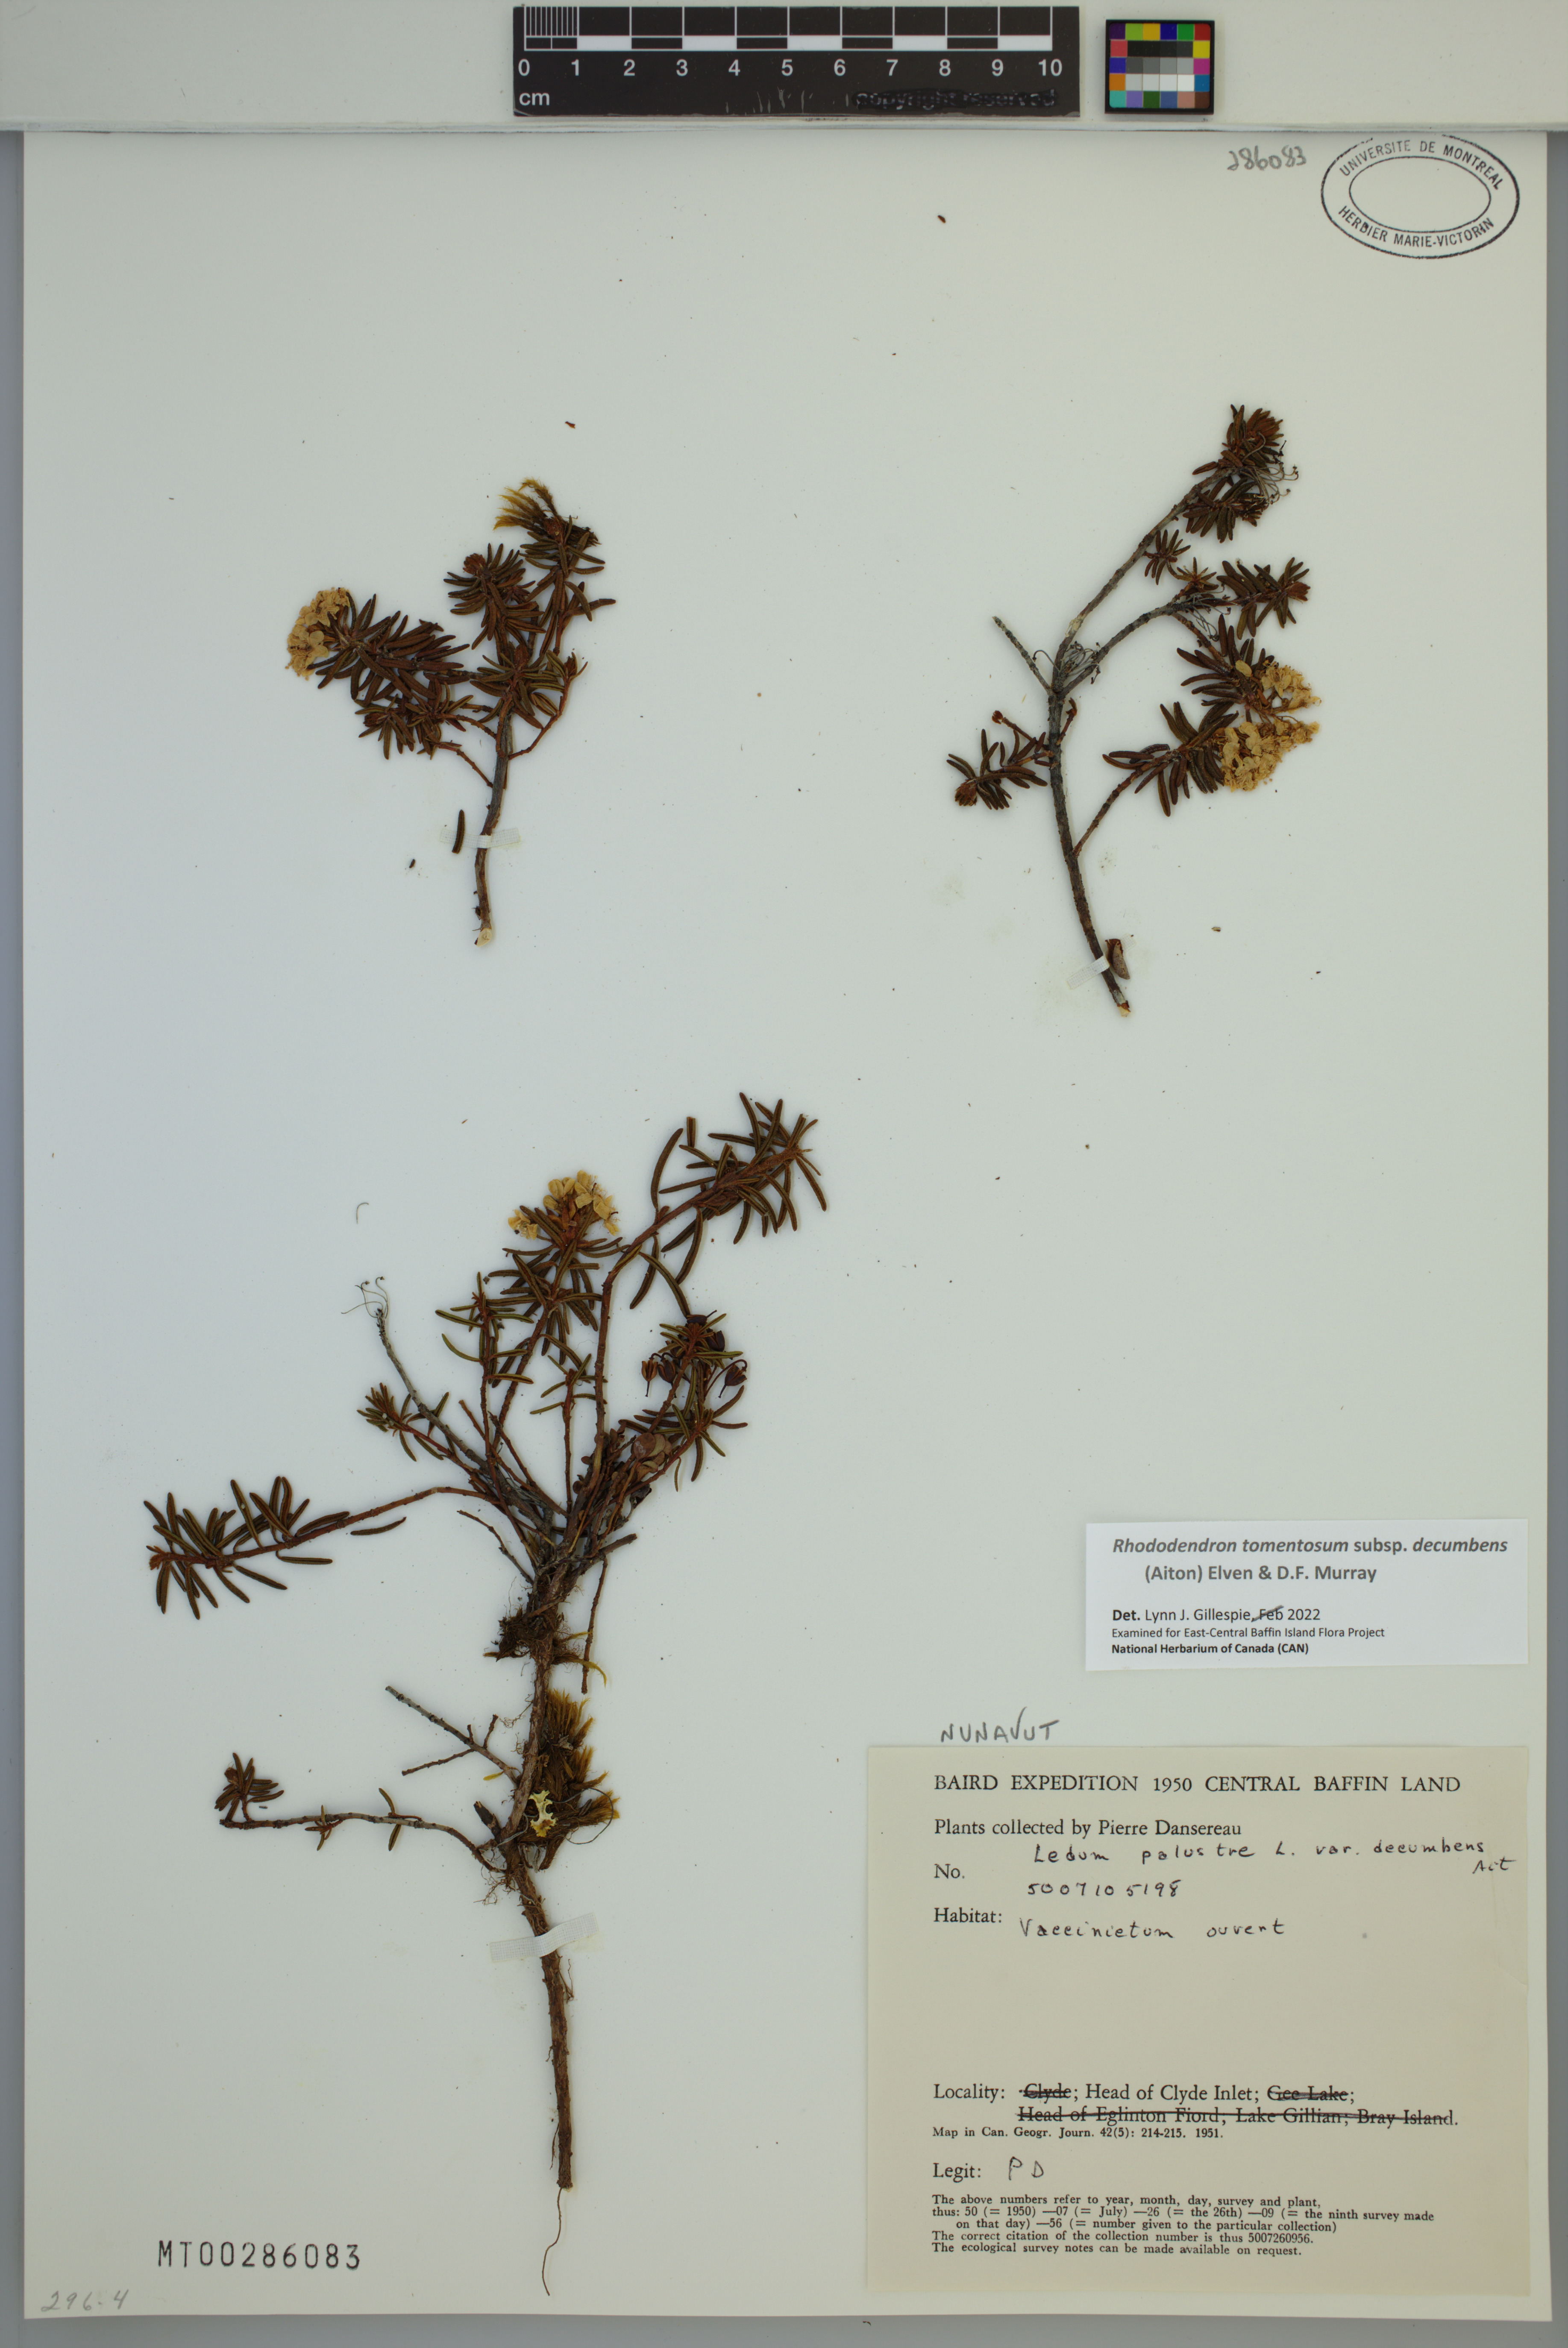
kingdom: Plantae
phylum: Tracheophyta
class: Magnoliopsida
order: Ericales
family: Ericaceae
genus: Rhododendron
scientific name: Rhododendron tomentosum
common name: Marsh labrador tea
